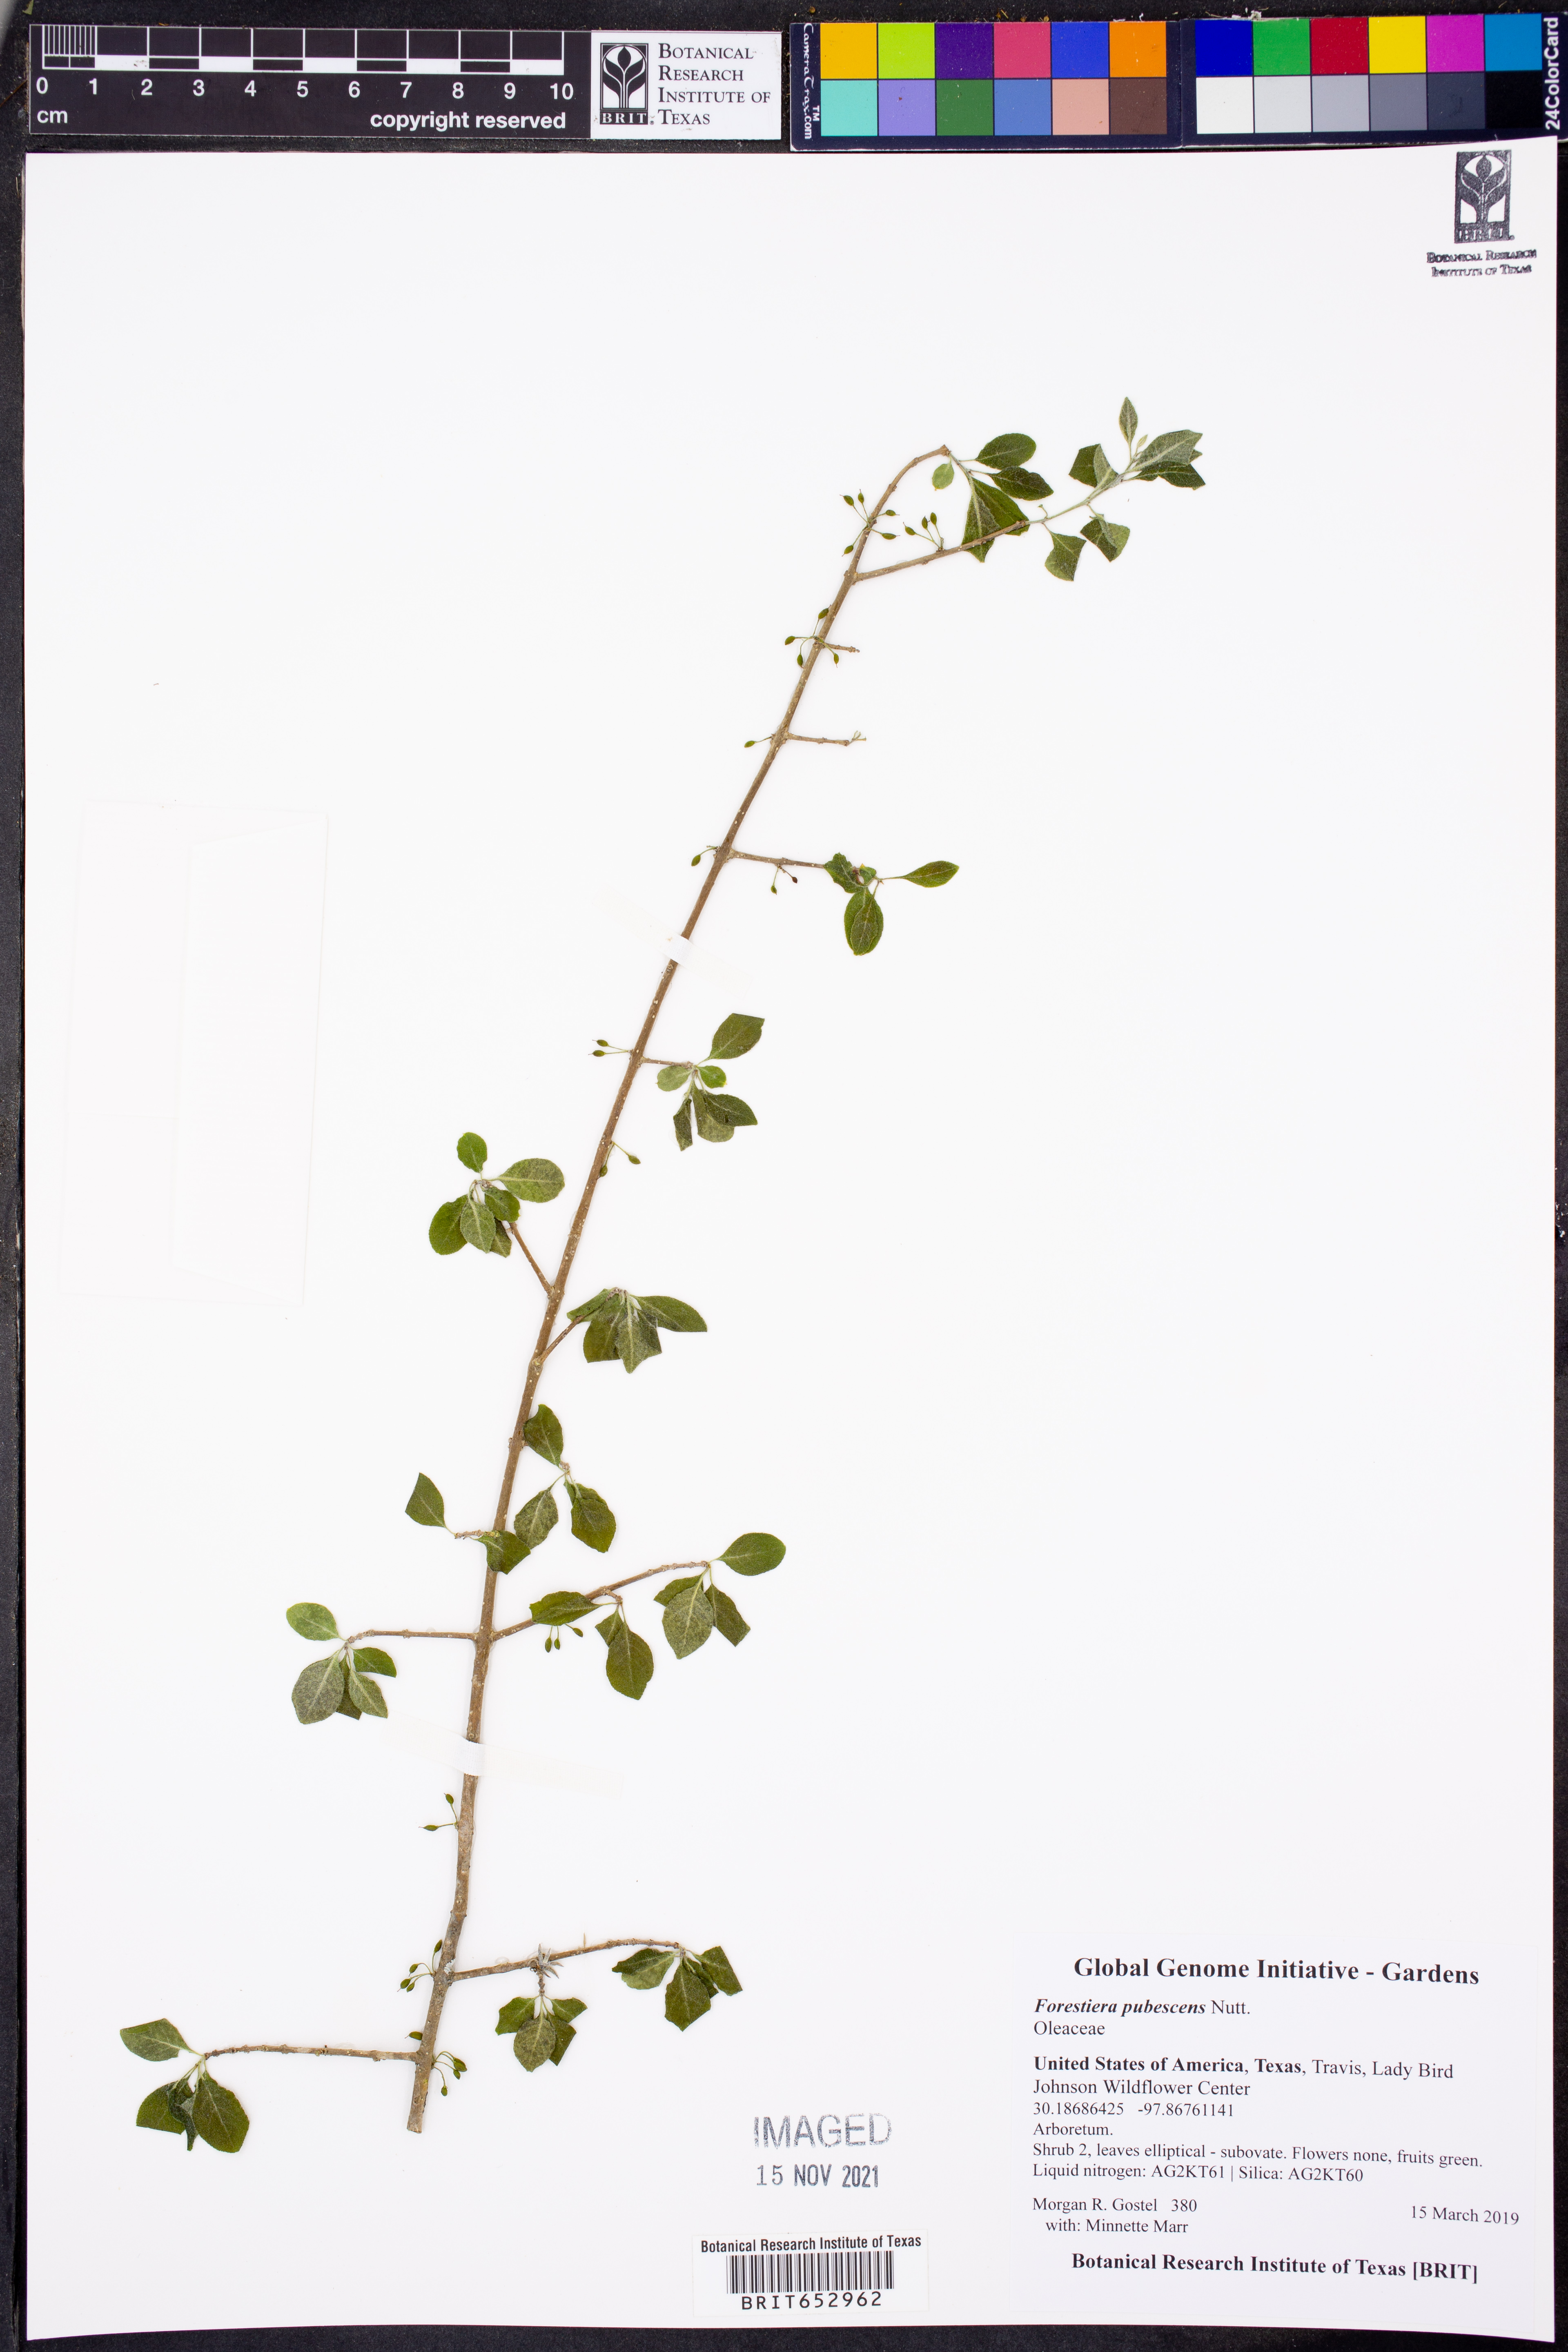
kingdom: Plantae
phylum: Tracheophyta
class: Magnoliopsida
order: Lamiales
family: Oleaceae
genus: Forestiera
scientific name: Forestiera pubescens
